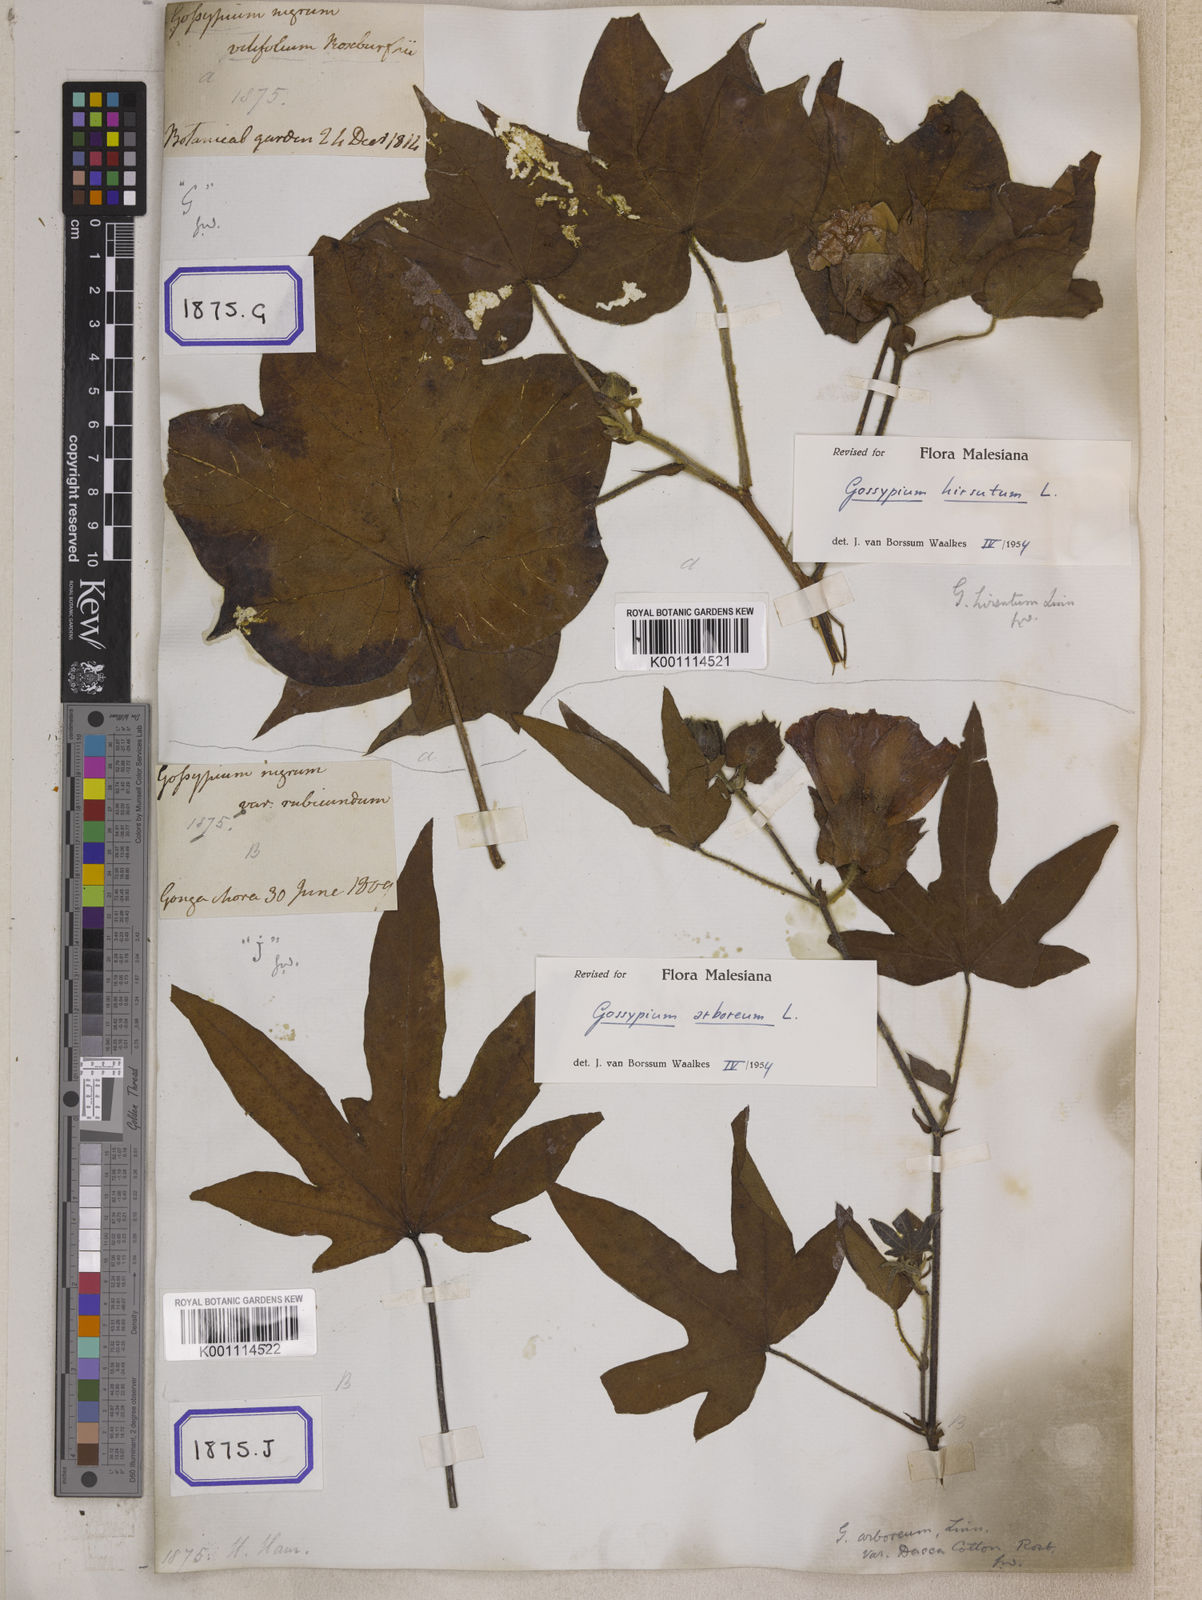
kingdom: Plantae
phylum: Tracheophyta
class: Magnoliopsida
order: Malvales
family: Malvaceae
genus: Gossypium
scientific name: Gossypium barbadense
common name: Creole cotton
